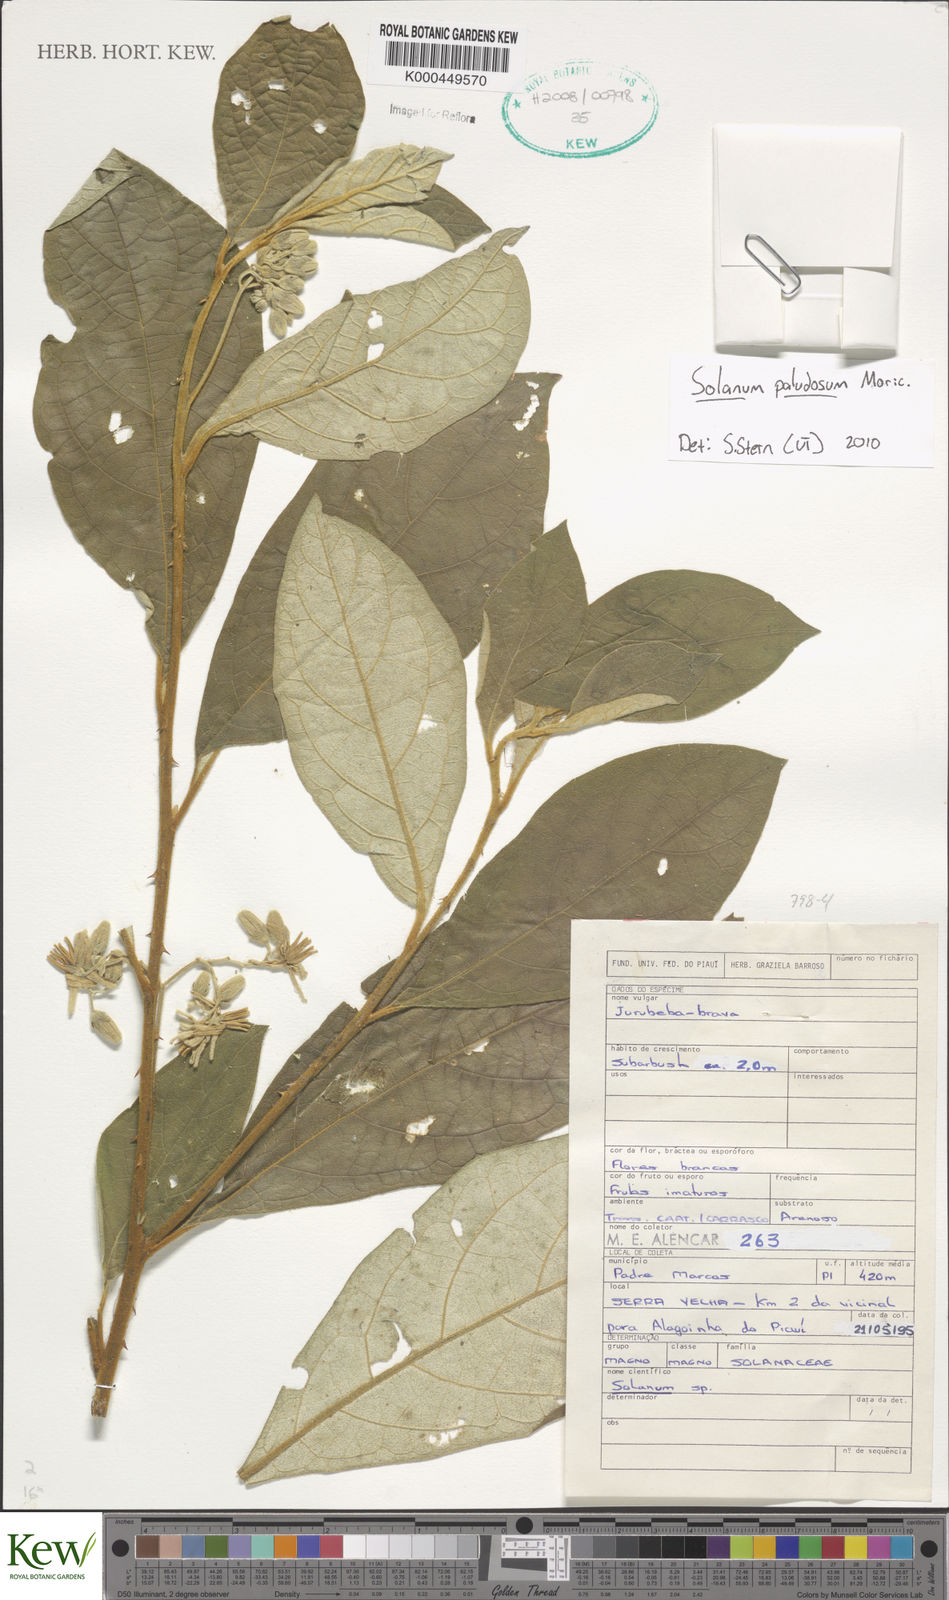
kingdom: Plantae
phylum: Tracheophyta
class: Magnoliopsida
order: Solanales
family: Solanaceae
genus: Solanum
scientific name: Solanum paludosum
